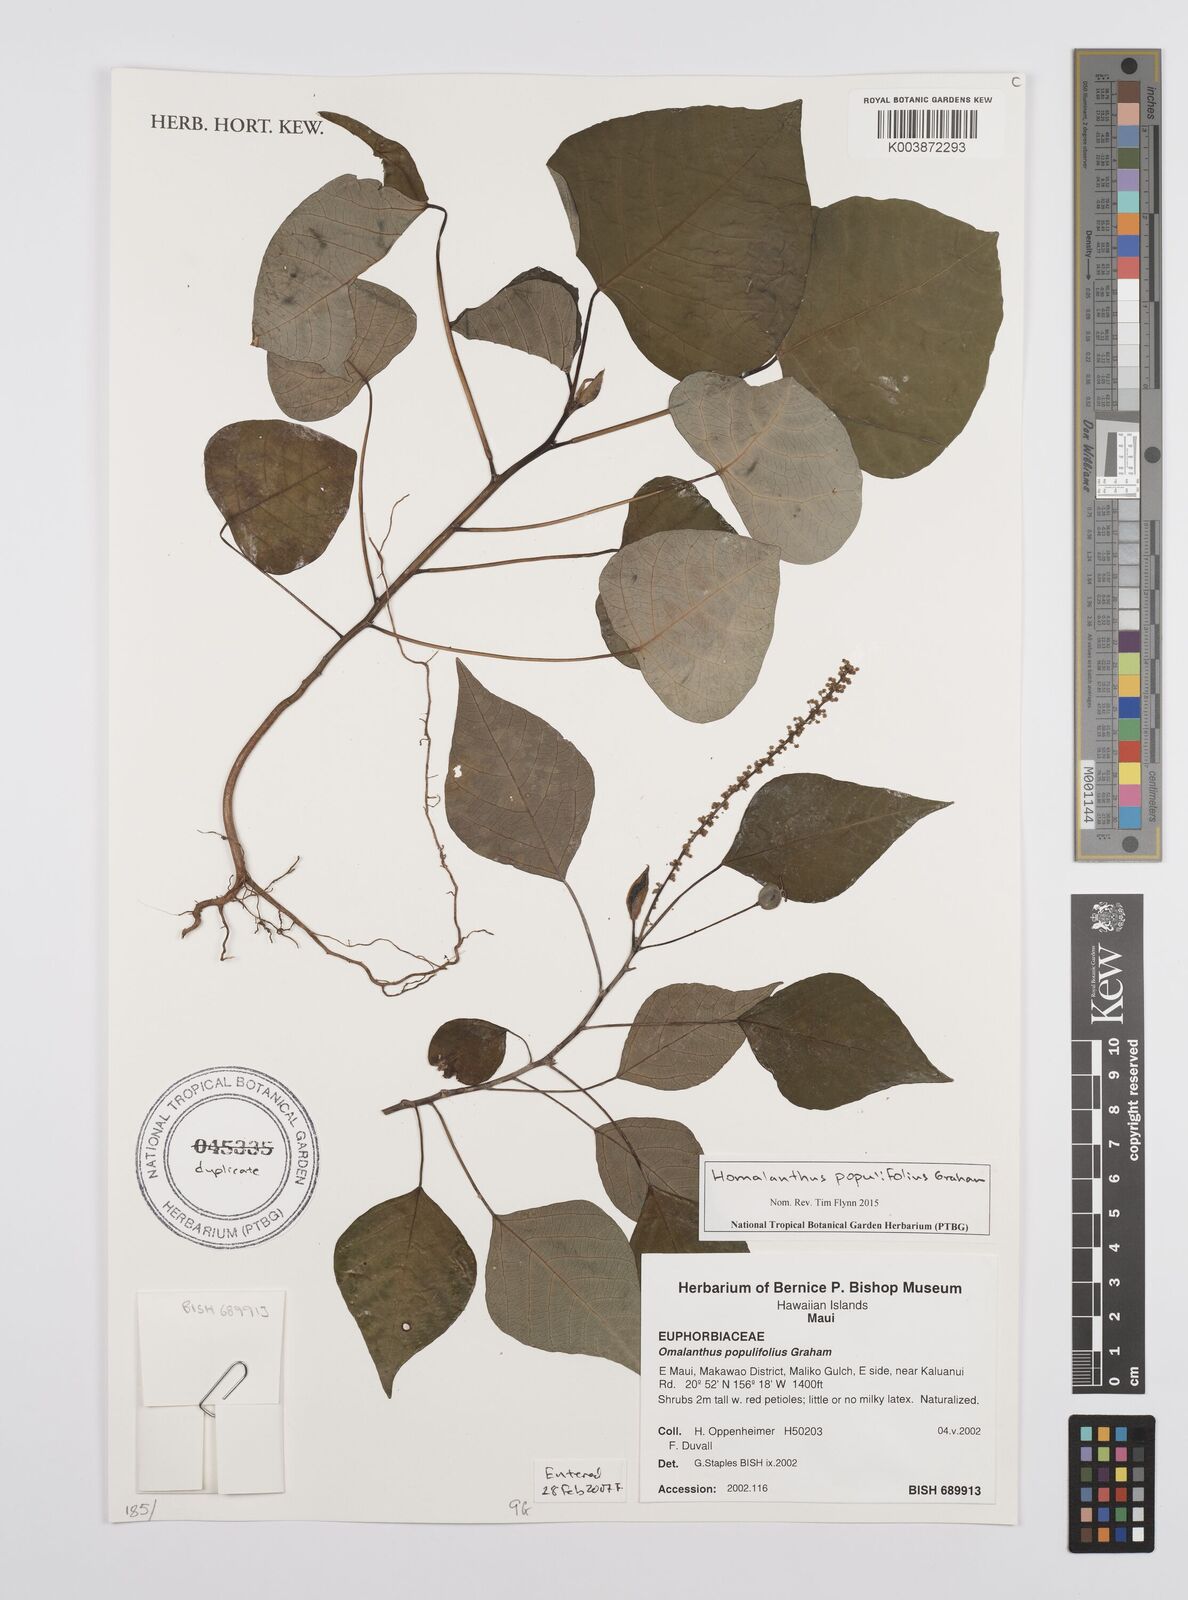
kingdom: Plantae
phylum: Tracheophyta
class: Magnoliopsida
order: Malpighiales
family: Euphorbiaceae
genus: Homalanthus
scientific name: Homalanthus populifolius
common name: Queensland poplar
